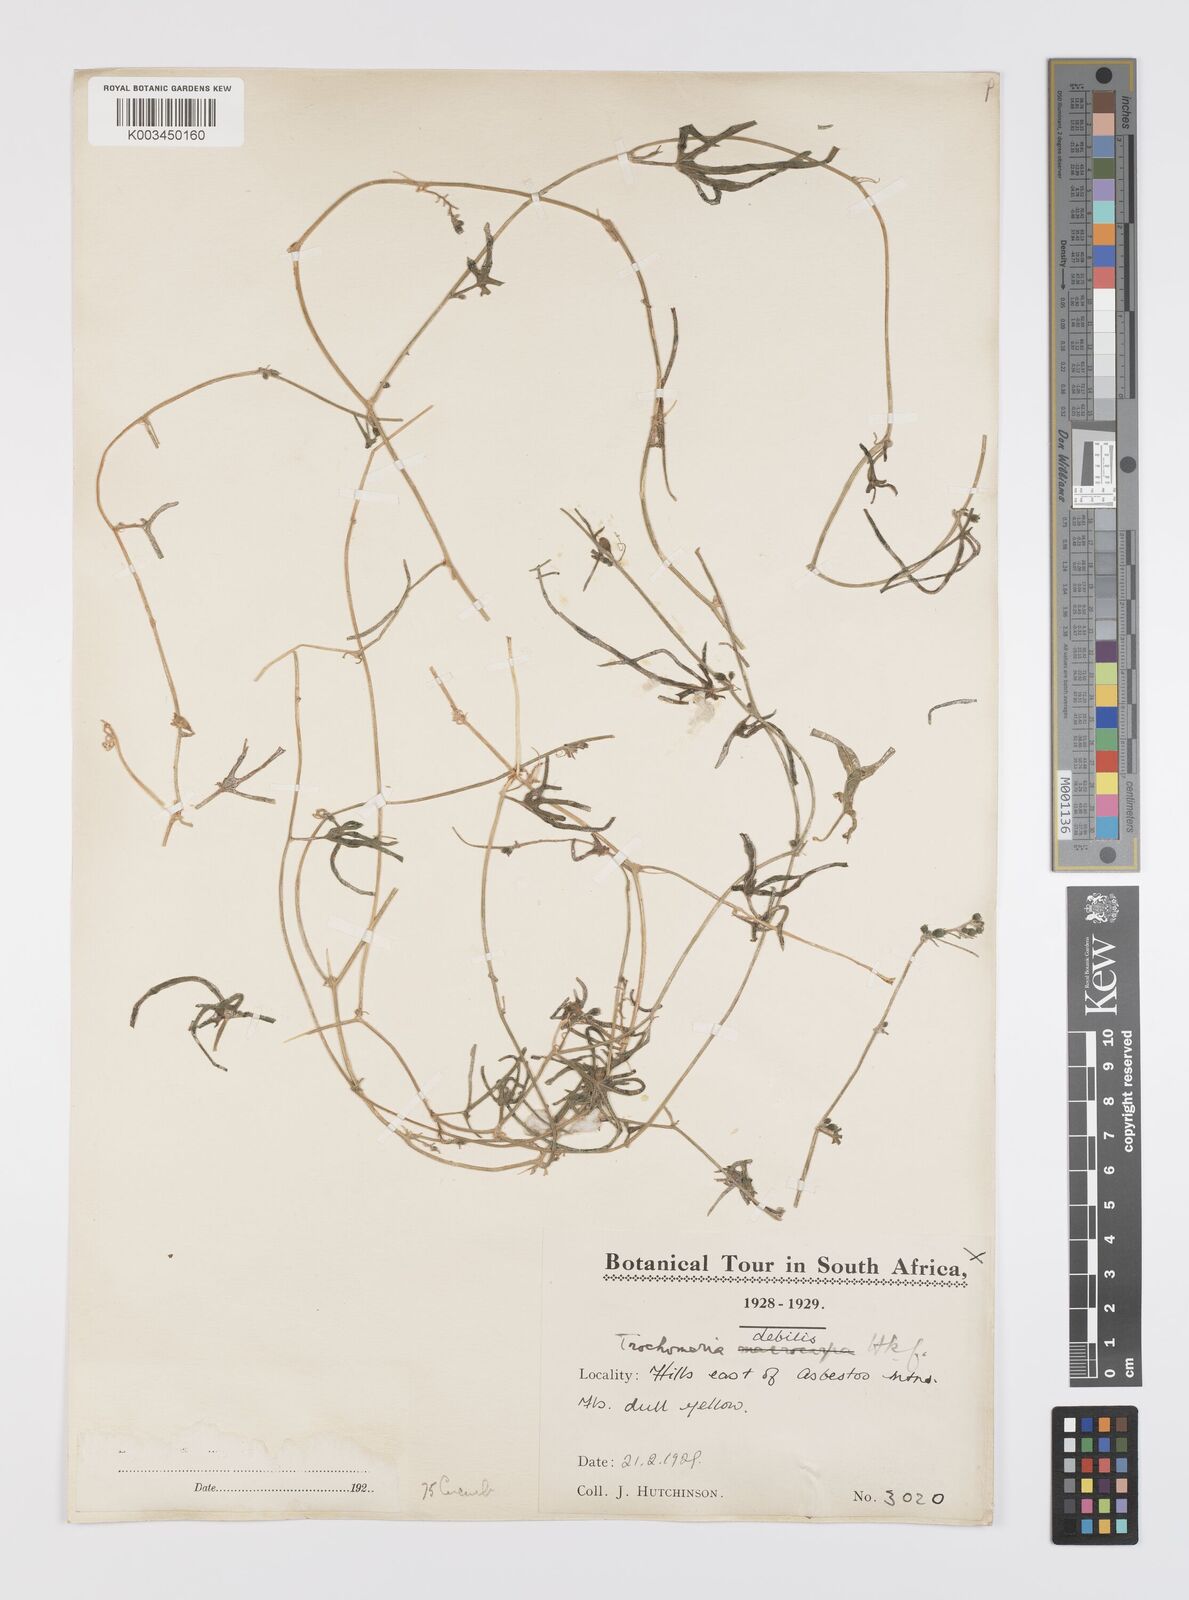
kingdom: Plantae
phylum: Tracheophyta
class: Magnoliopsida
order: Cucurbitales
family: Cucurbitaceae
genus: Trochomeria
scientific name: Trochomeria debilis
